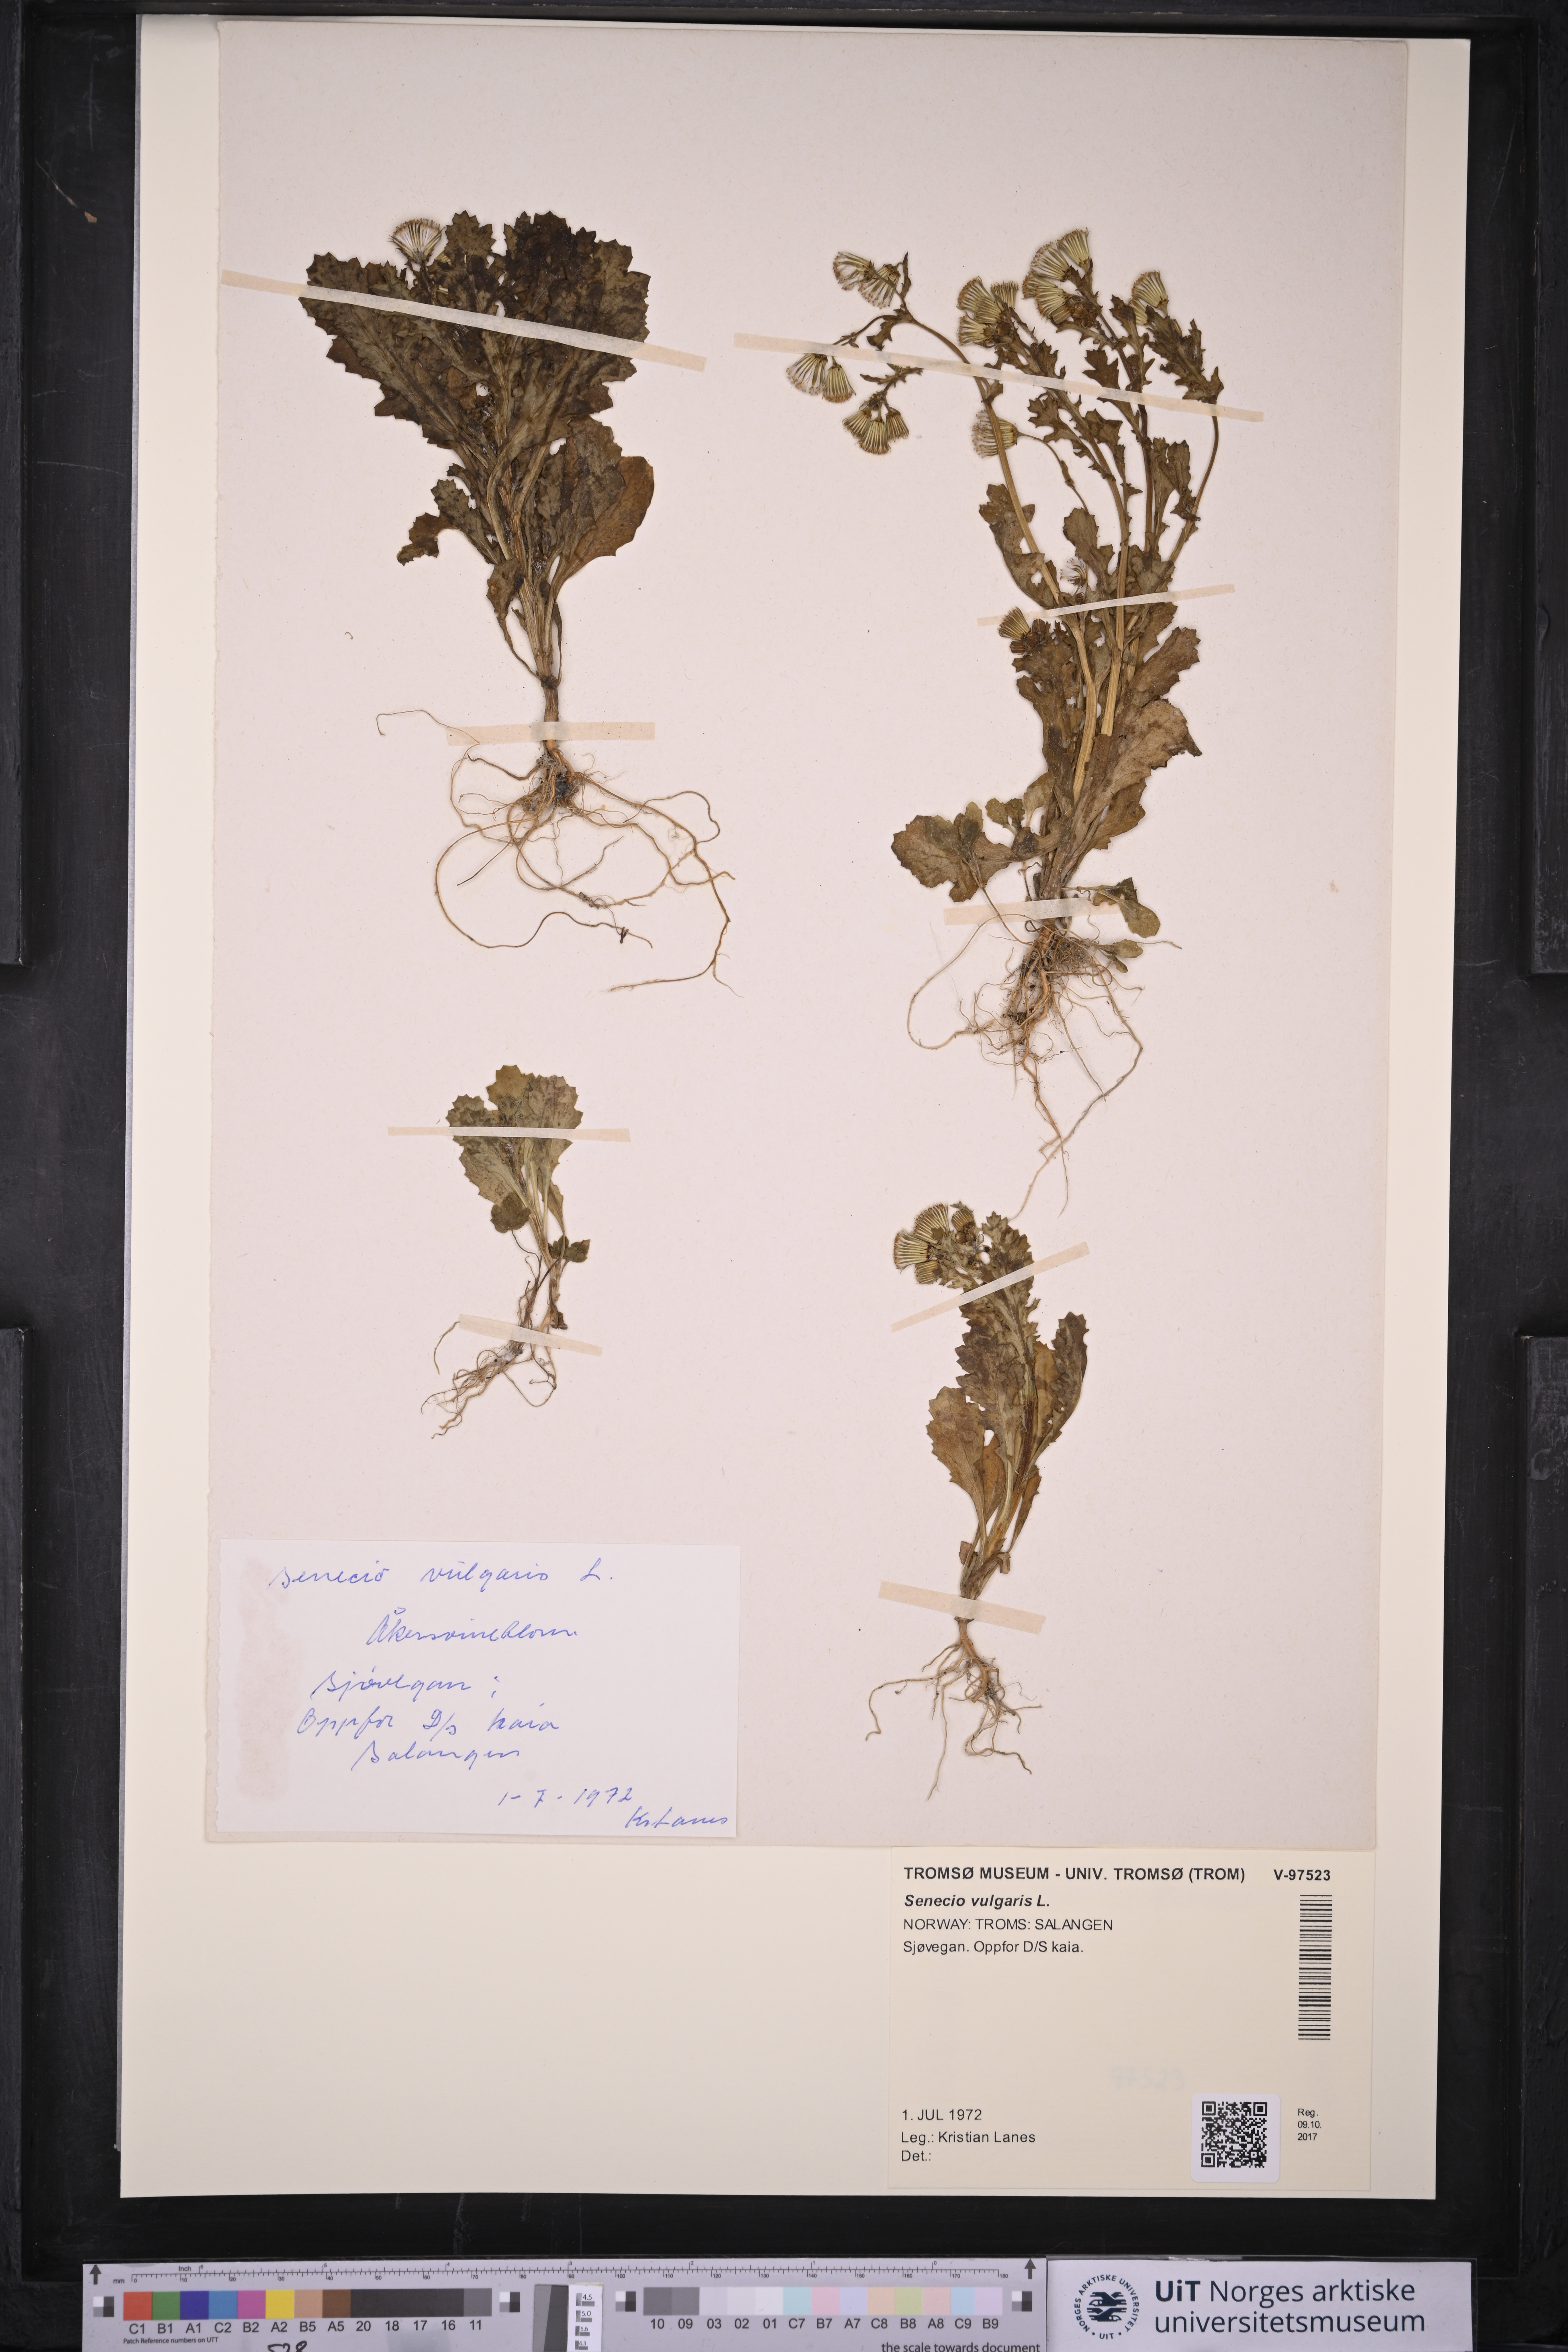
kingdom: Plantae
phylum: Tracheophyta
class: Magnoliopsida
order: Asterales
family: Asteraceae
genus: Senecio
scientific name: Senecio vulgaris
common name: Old-man-in-the-spring
